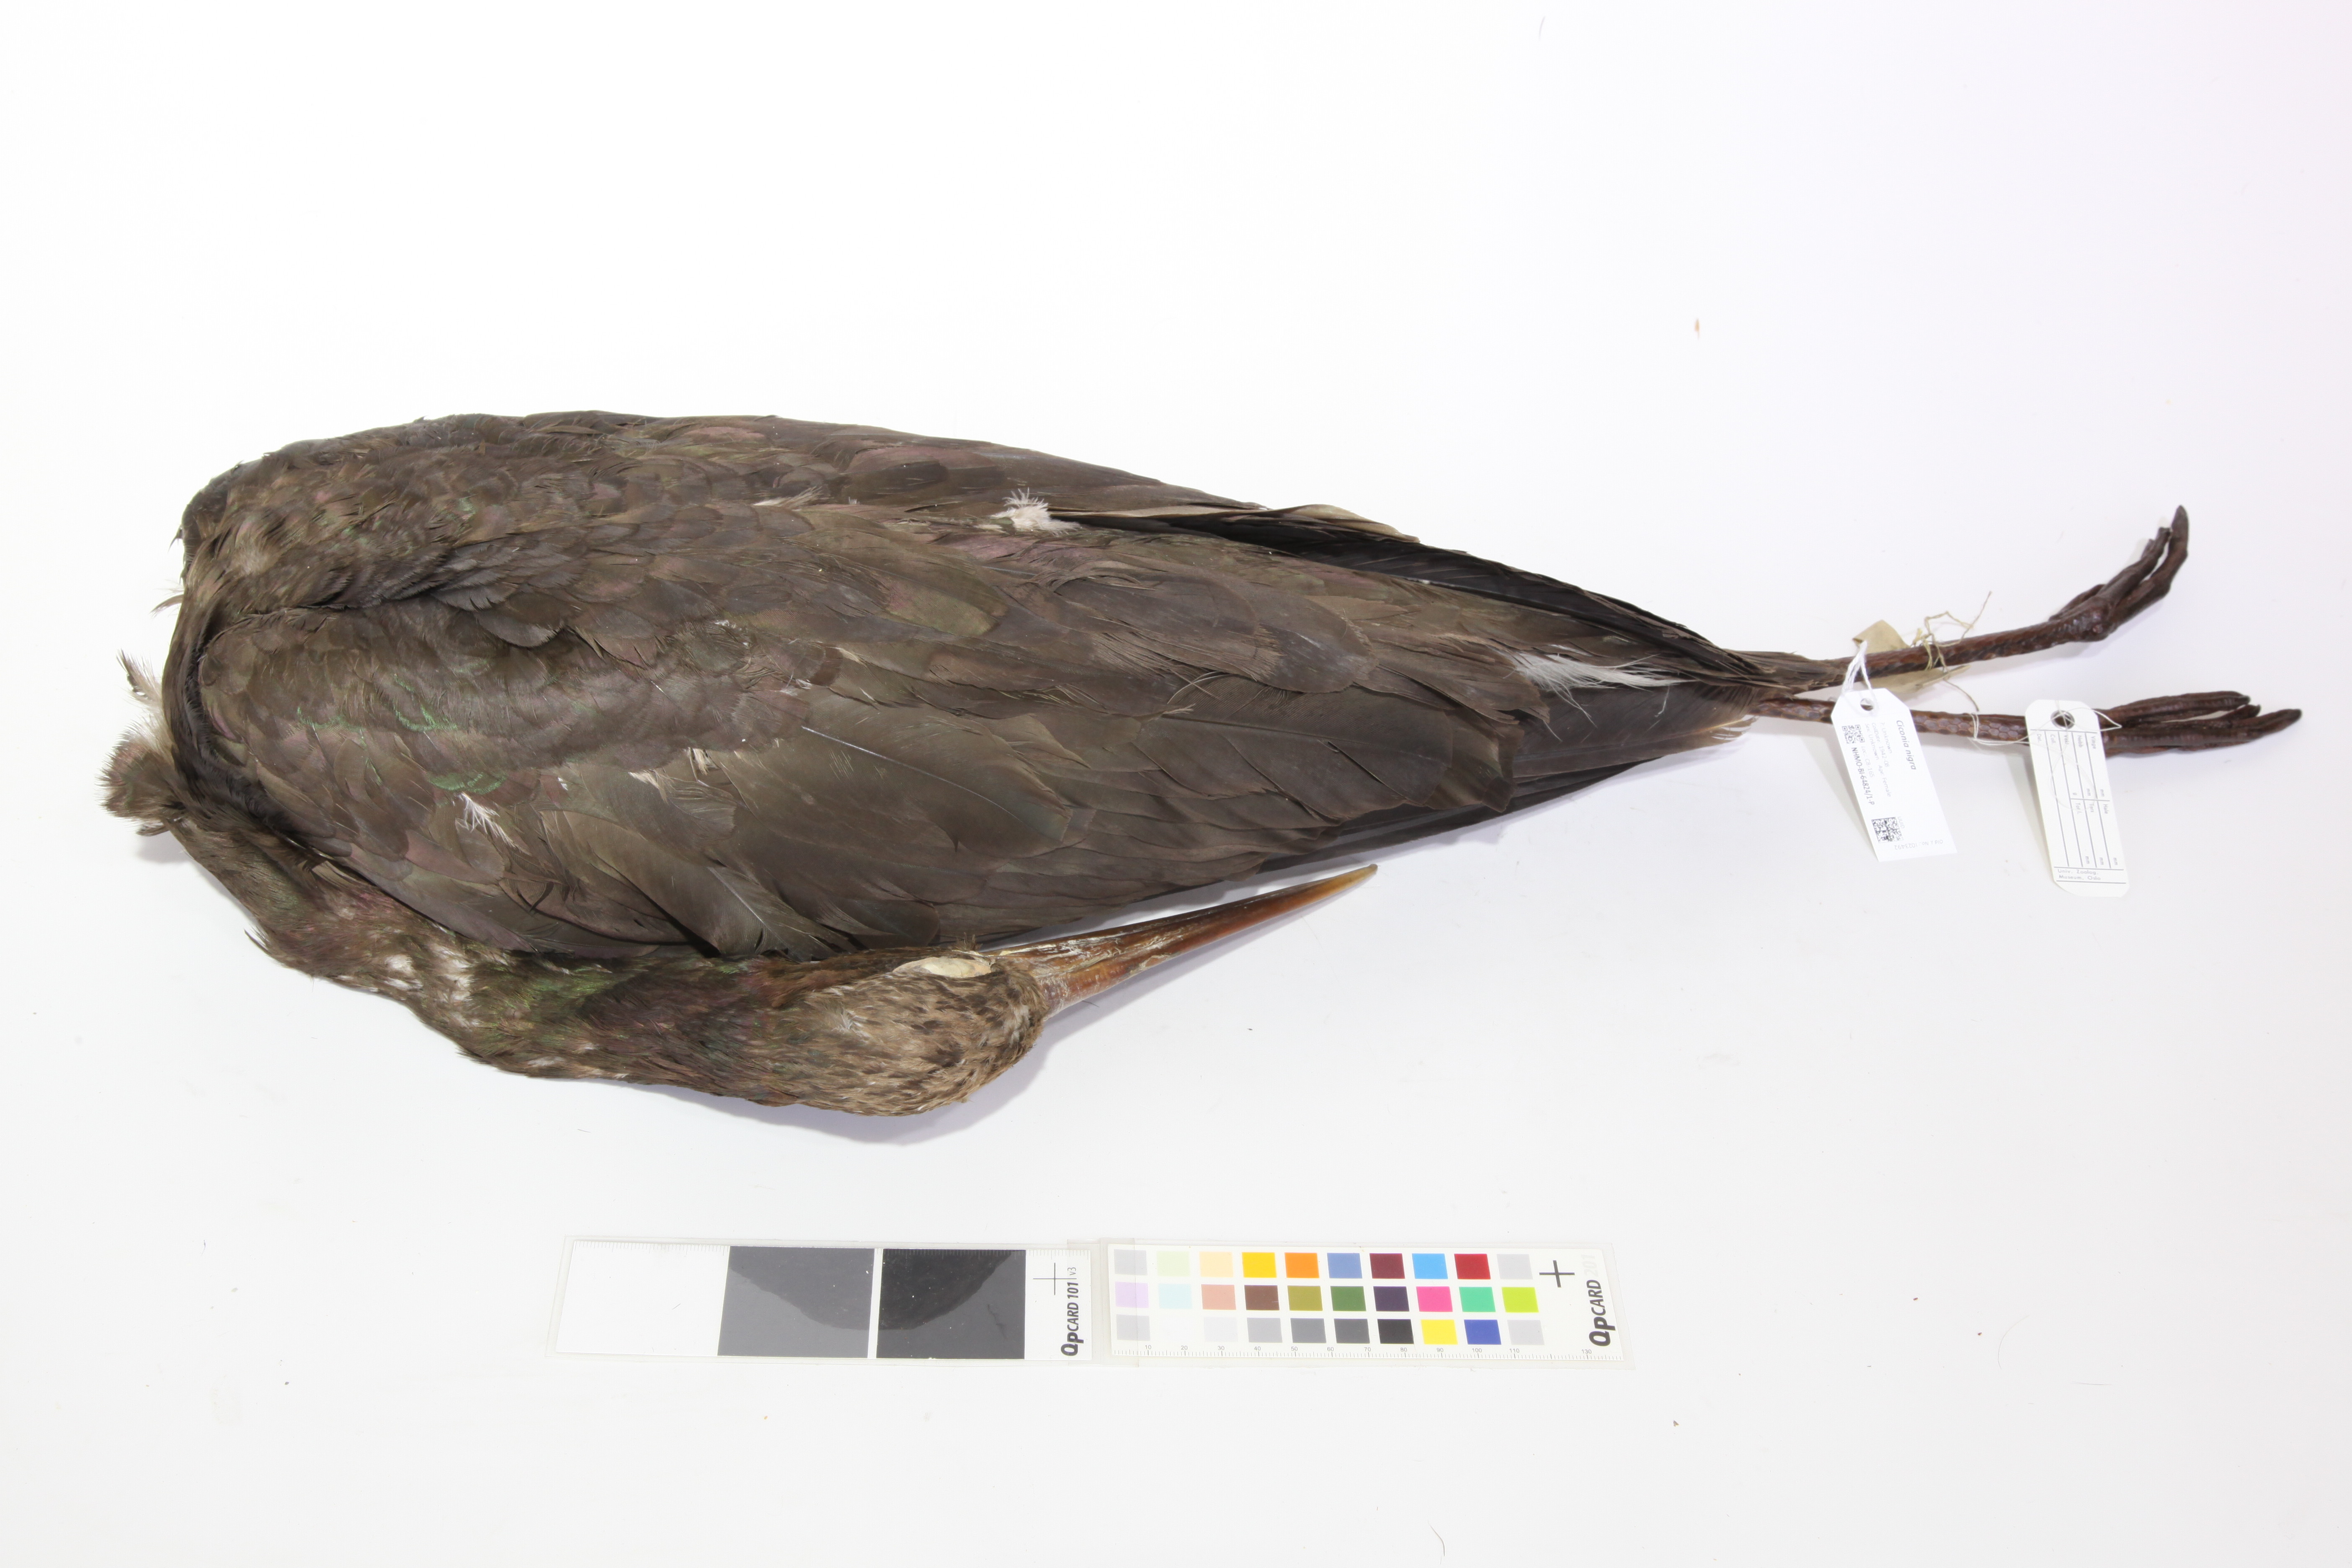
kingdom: Animalia
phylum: Chordata
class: Aves
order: Ciconiiformes
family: Ciconiidae
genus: Ciconia
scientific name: Ciconia nigra
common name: Black stork
